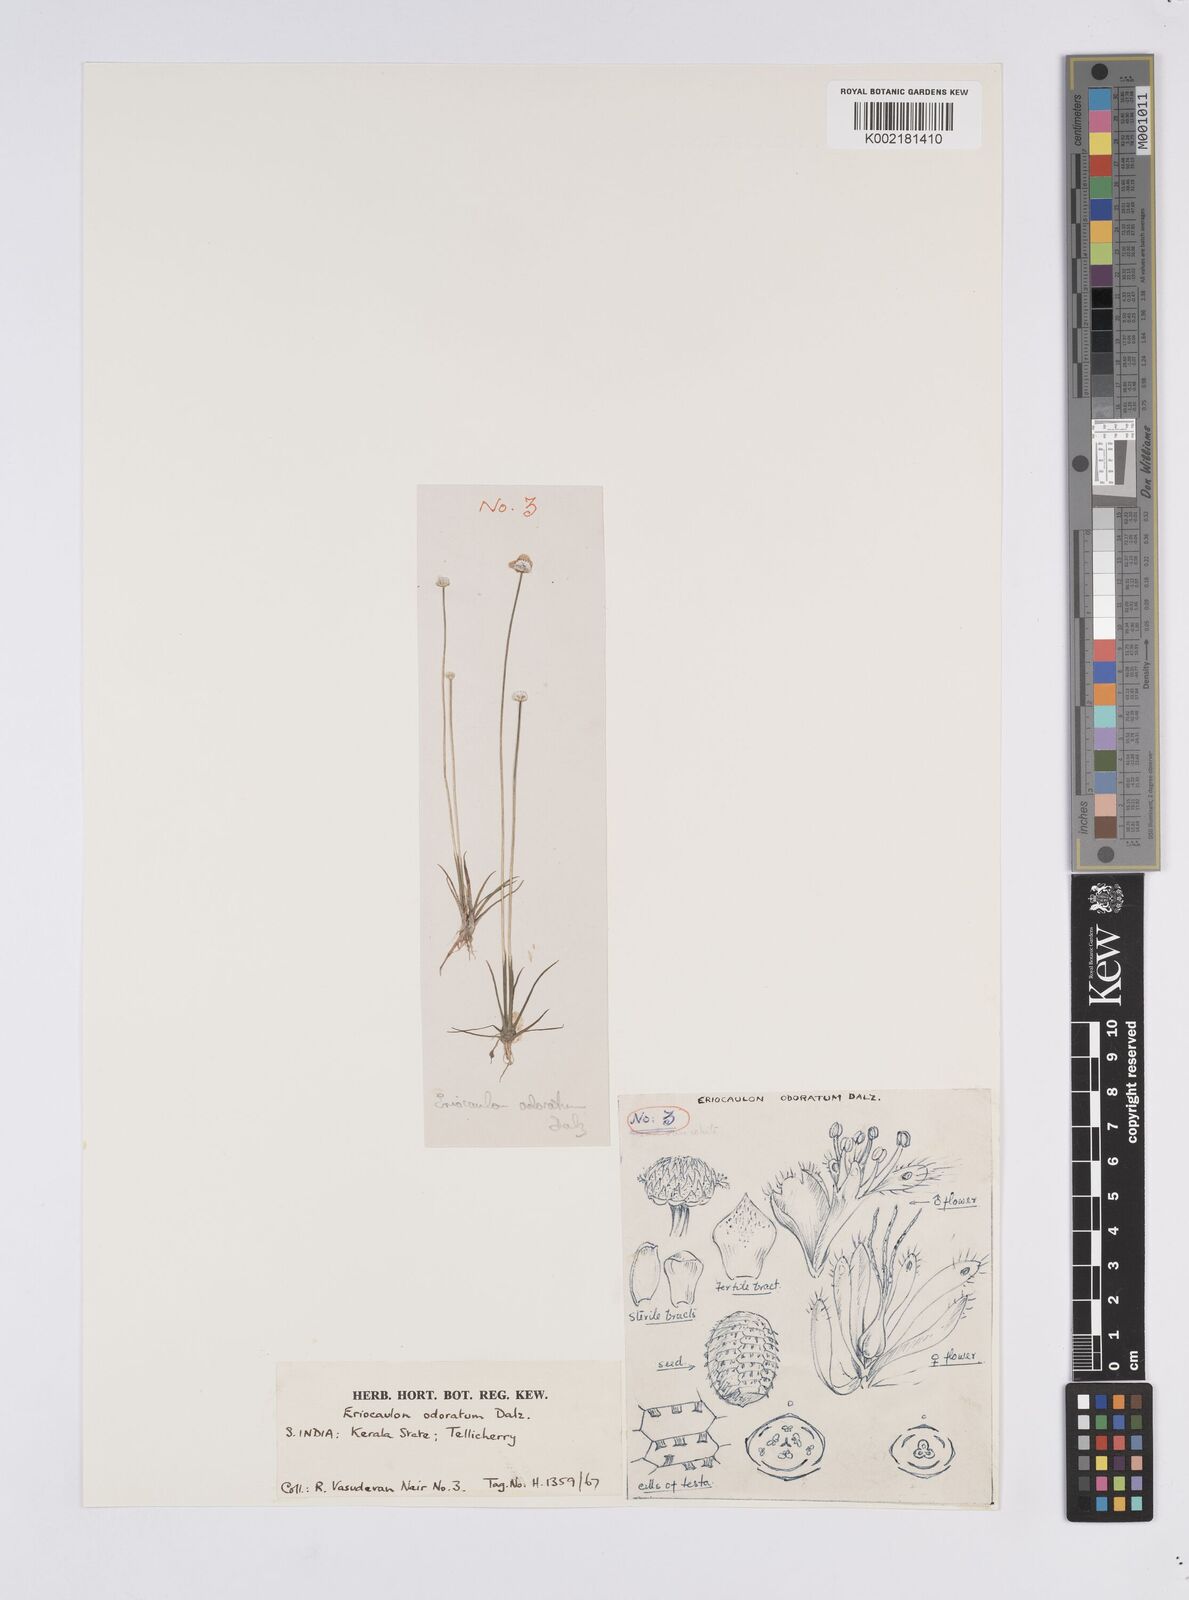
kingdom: Plantae
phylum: Tracheophyta
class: Liliopsida
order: Poales
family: Eriocaulaceae
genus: Eriocaulon
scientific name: Eriocaulon odoratum
